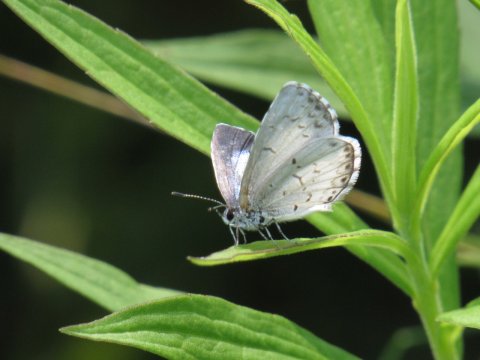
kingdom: Animalia
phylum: Arthropoda
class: Insecta
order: Lepidoptera
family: Lycaenidae
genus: Cyaniris
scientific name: Cyaniris neglecta
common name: Summer Azure
